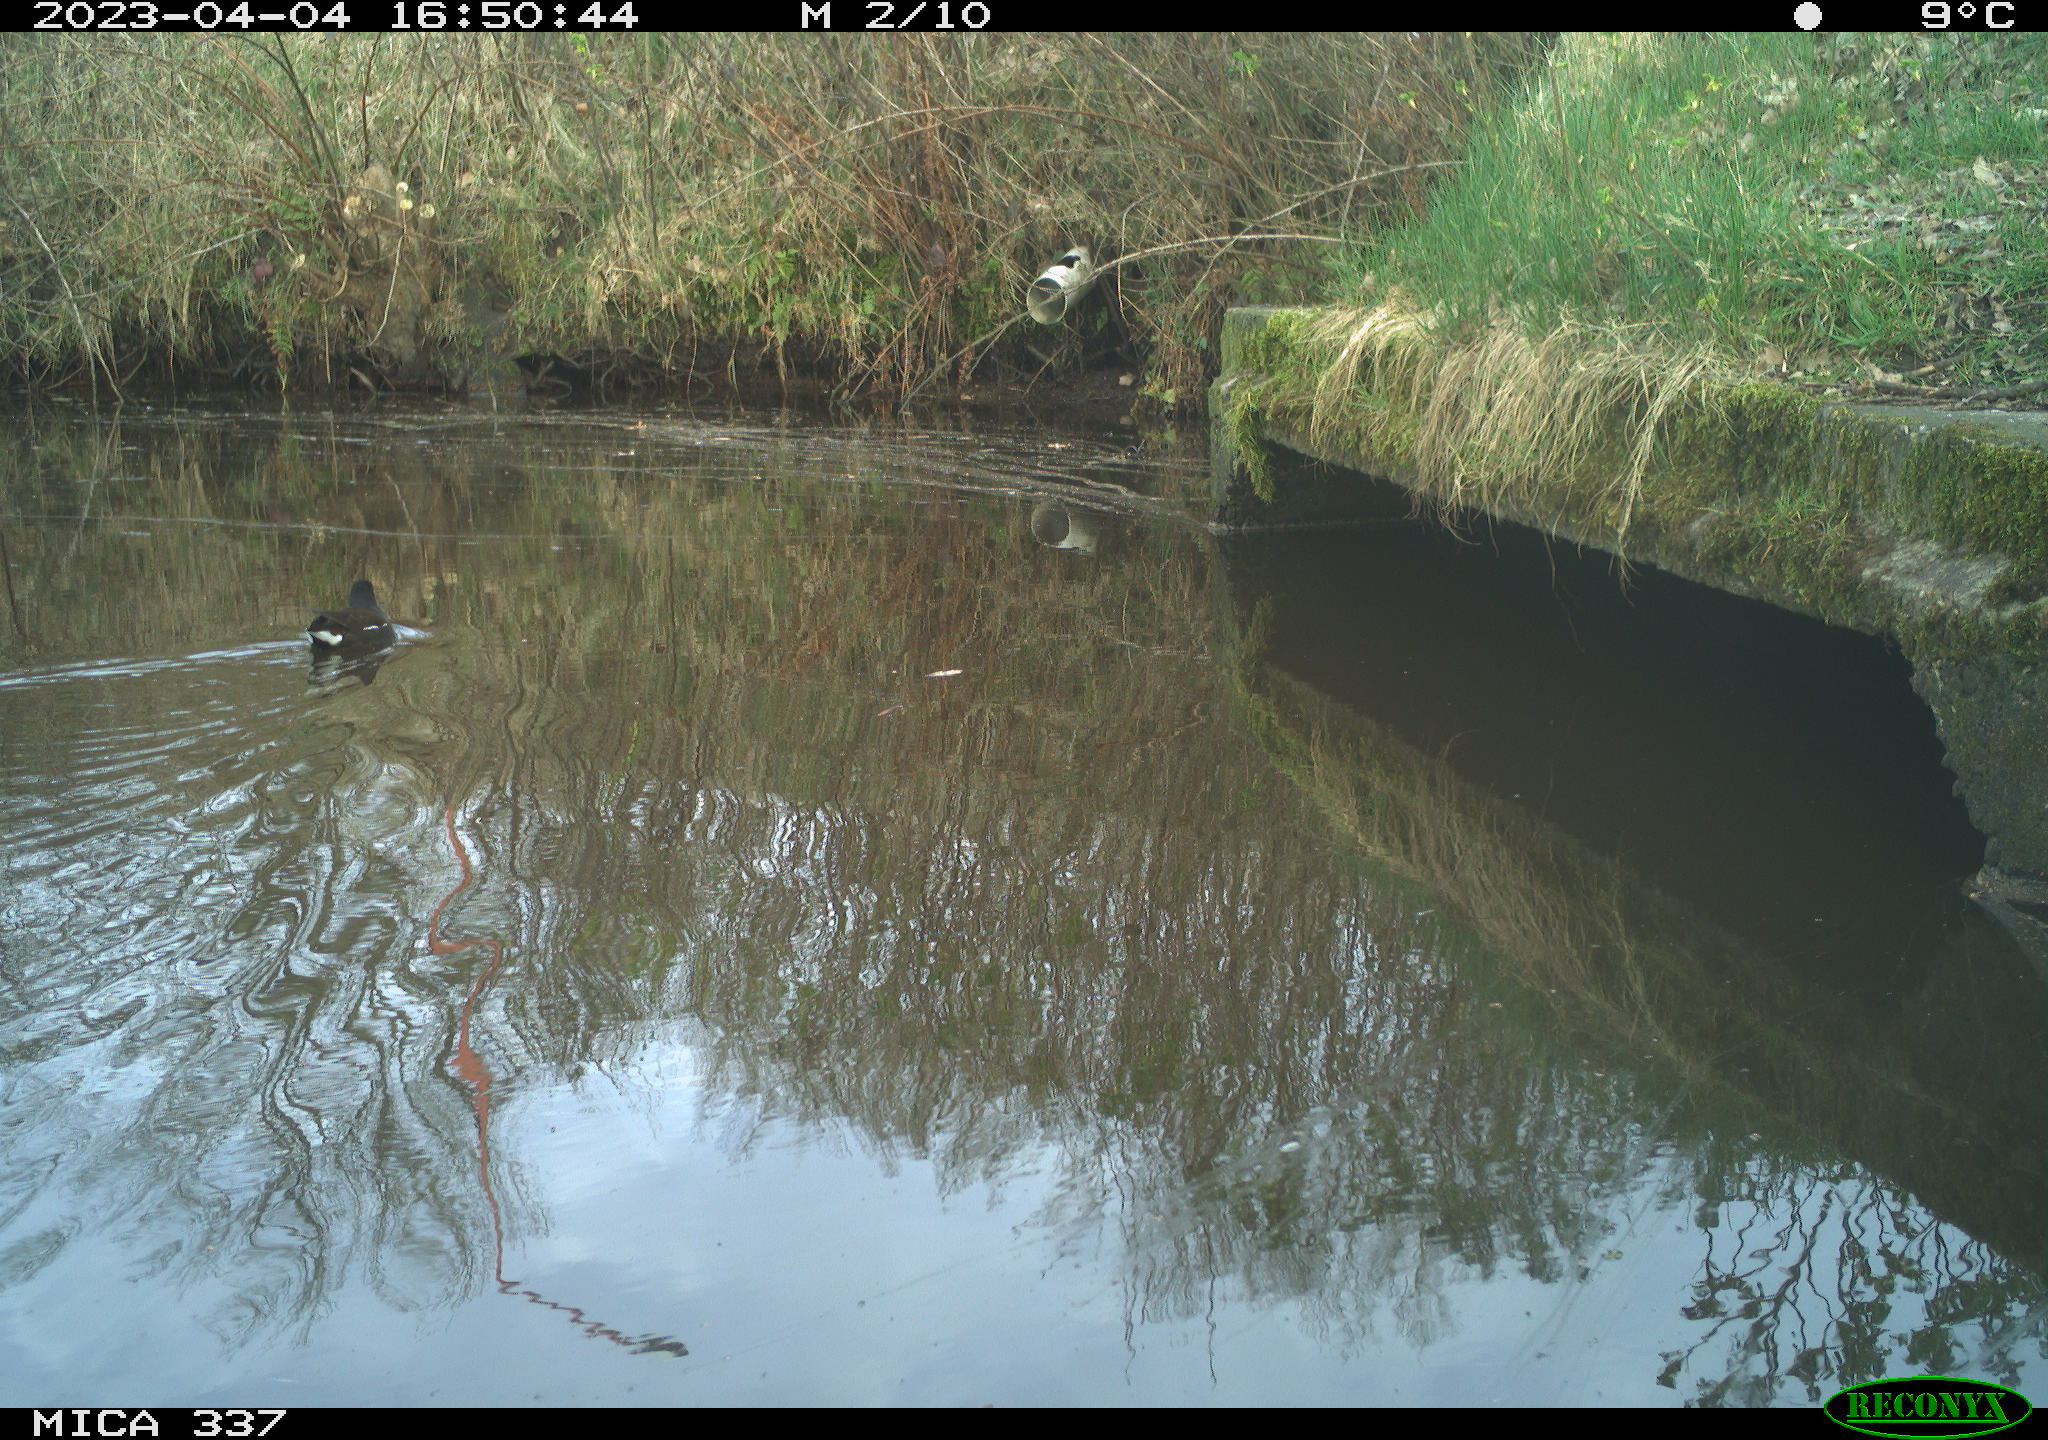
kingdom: Animalia
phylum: Chordata
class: Aves
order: Gruiformes
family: Rallidae
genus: Gallinula
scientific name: Gallinula chloropus
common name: Common moorhen
